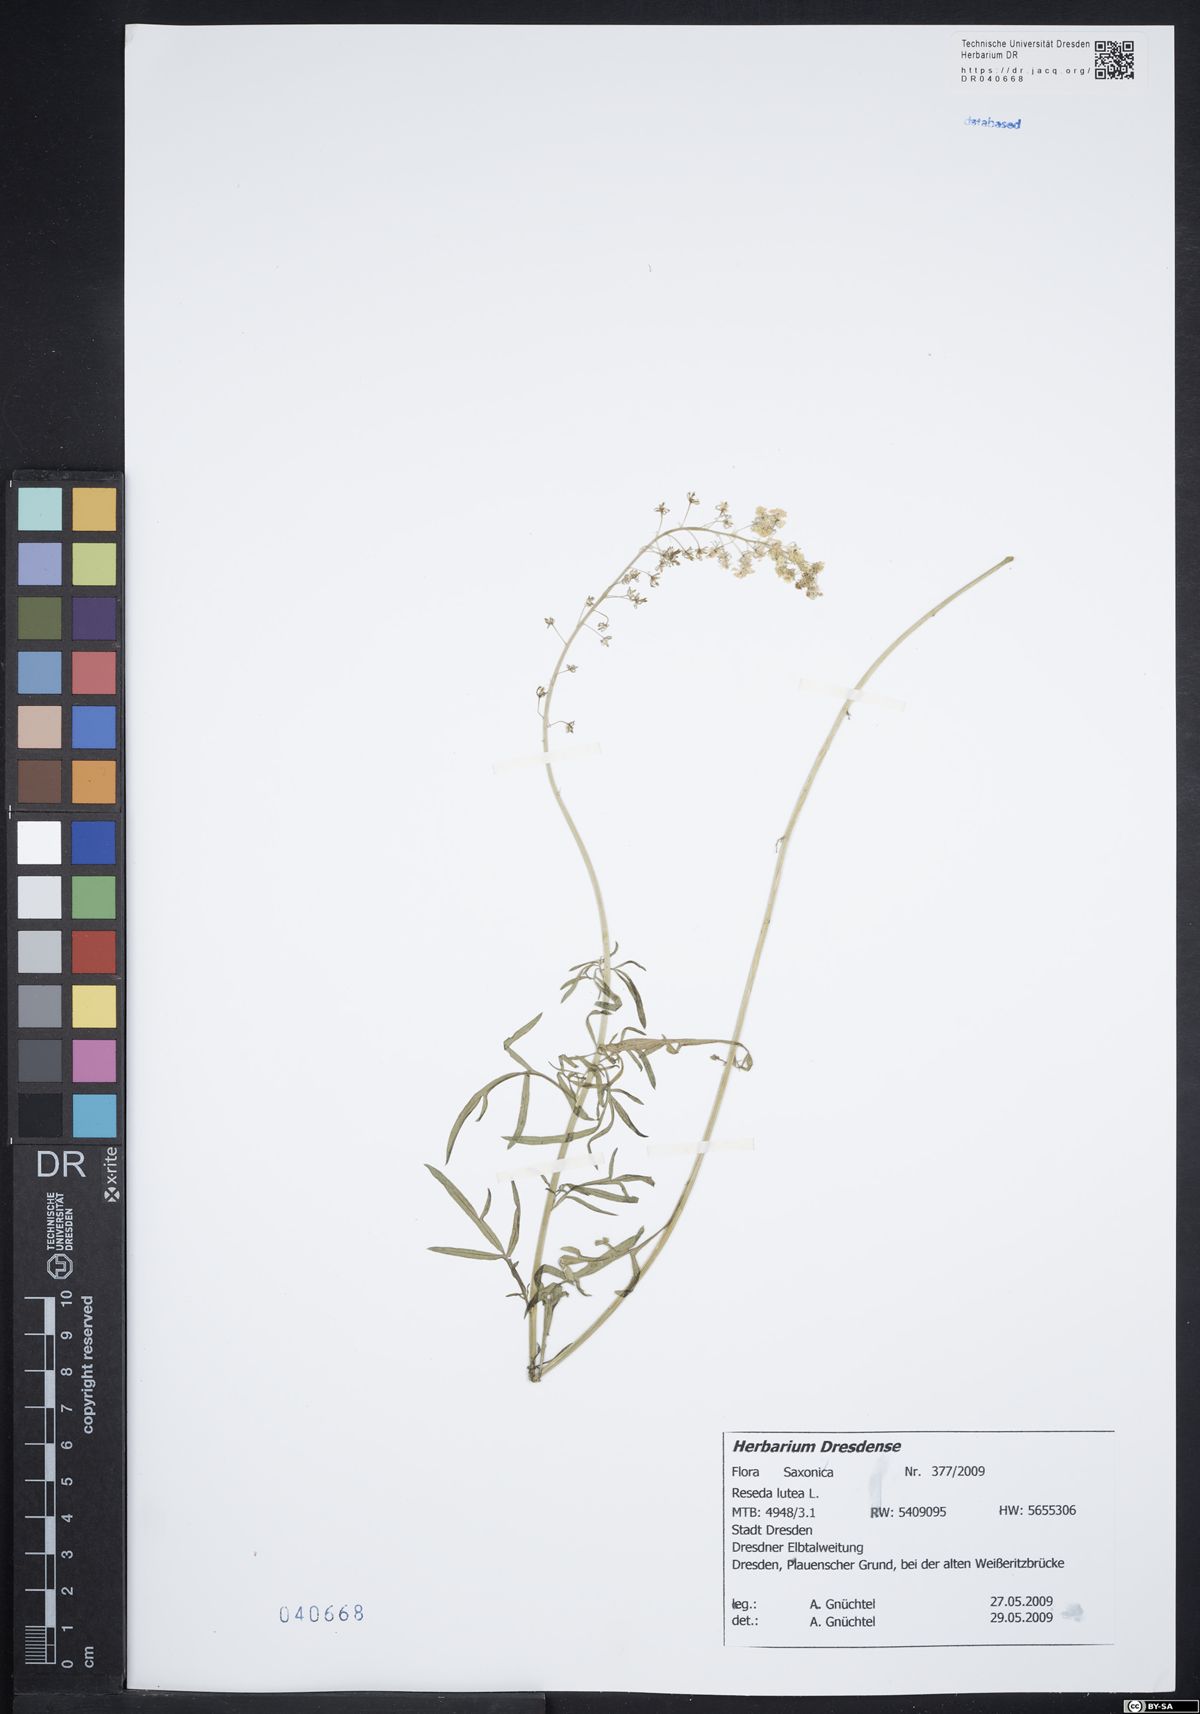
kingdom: Plantae
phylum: Tracheophyta
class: Magnoliopsida
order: Brassicales
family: Resedaceae
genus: Reseda
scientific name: Reseda lutea
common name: Wild mignonette
